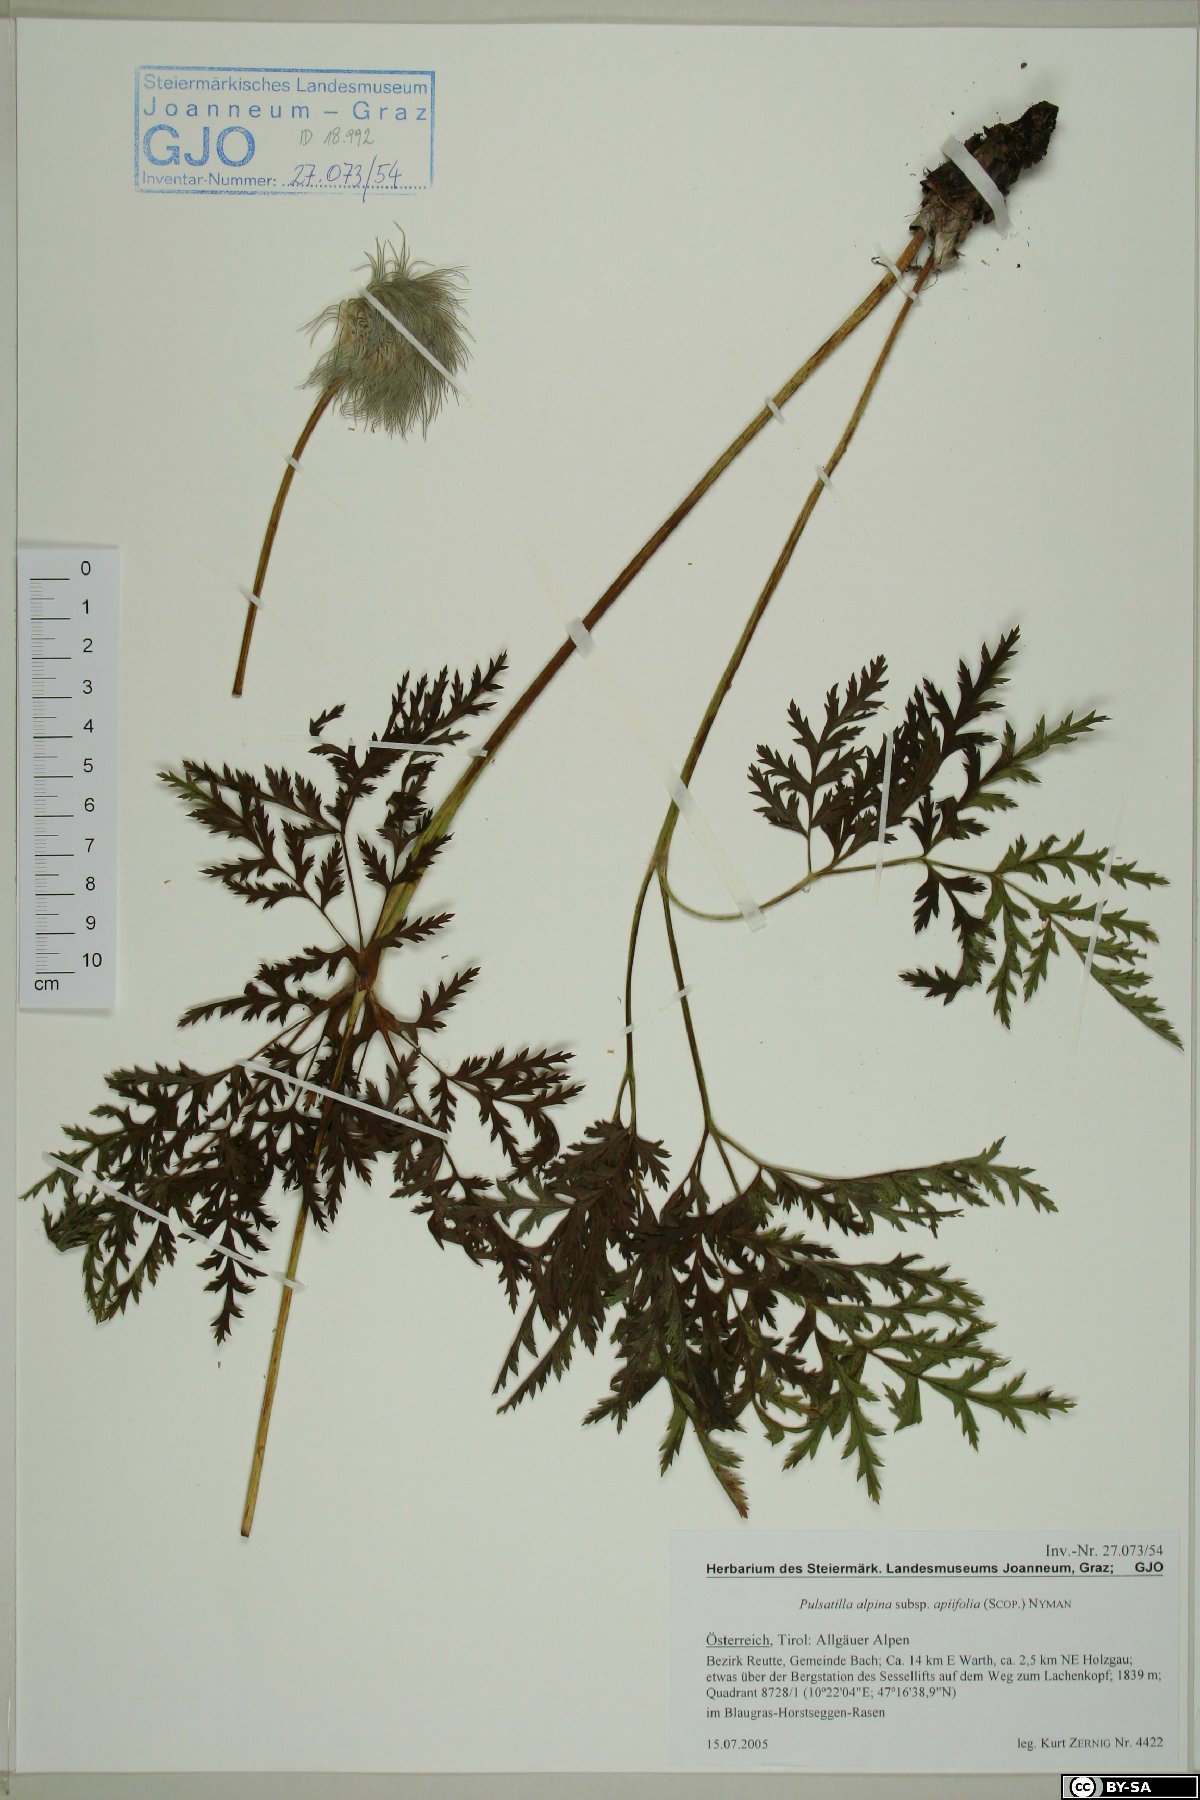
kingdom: Plantae
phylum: Tracheophyta
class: Magnoliopsida
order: Ranunculales
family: Ranunculaceae
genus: Pulsatilla
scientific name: Pulsatilla alpina
